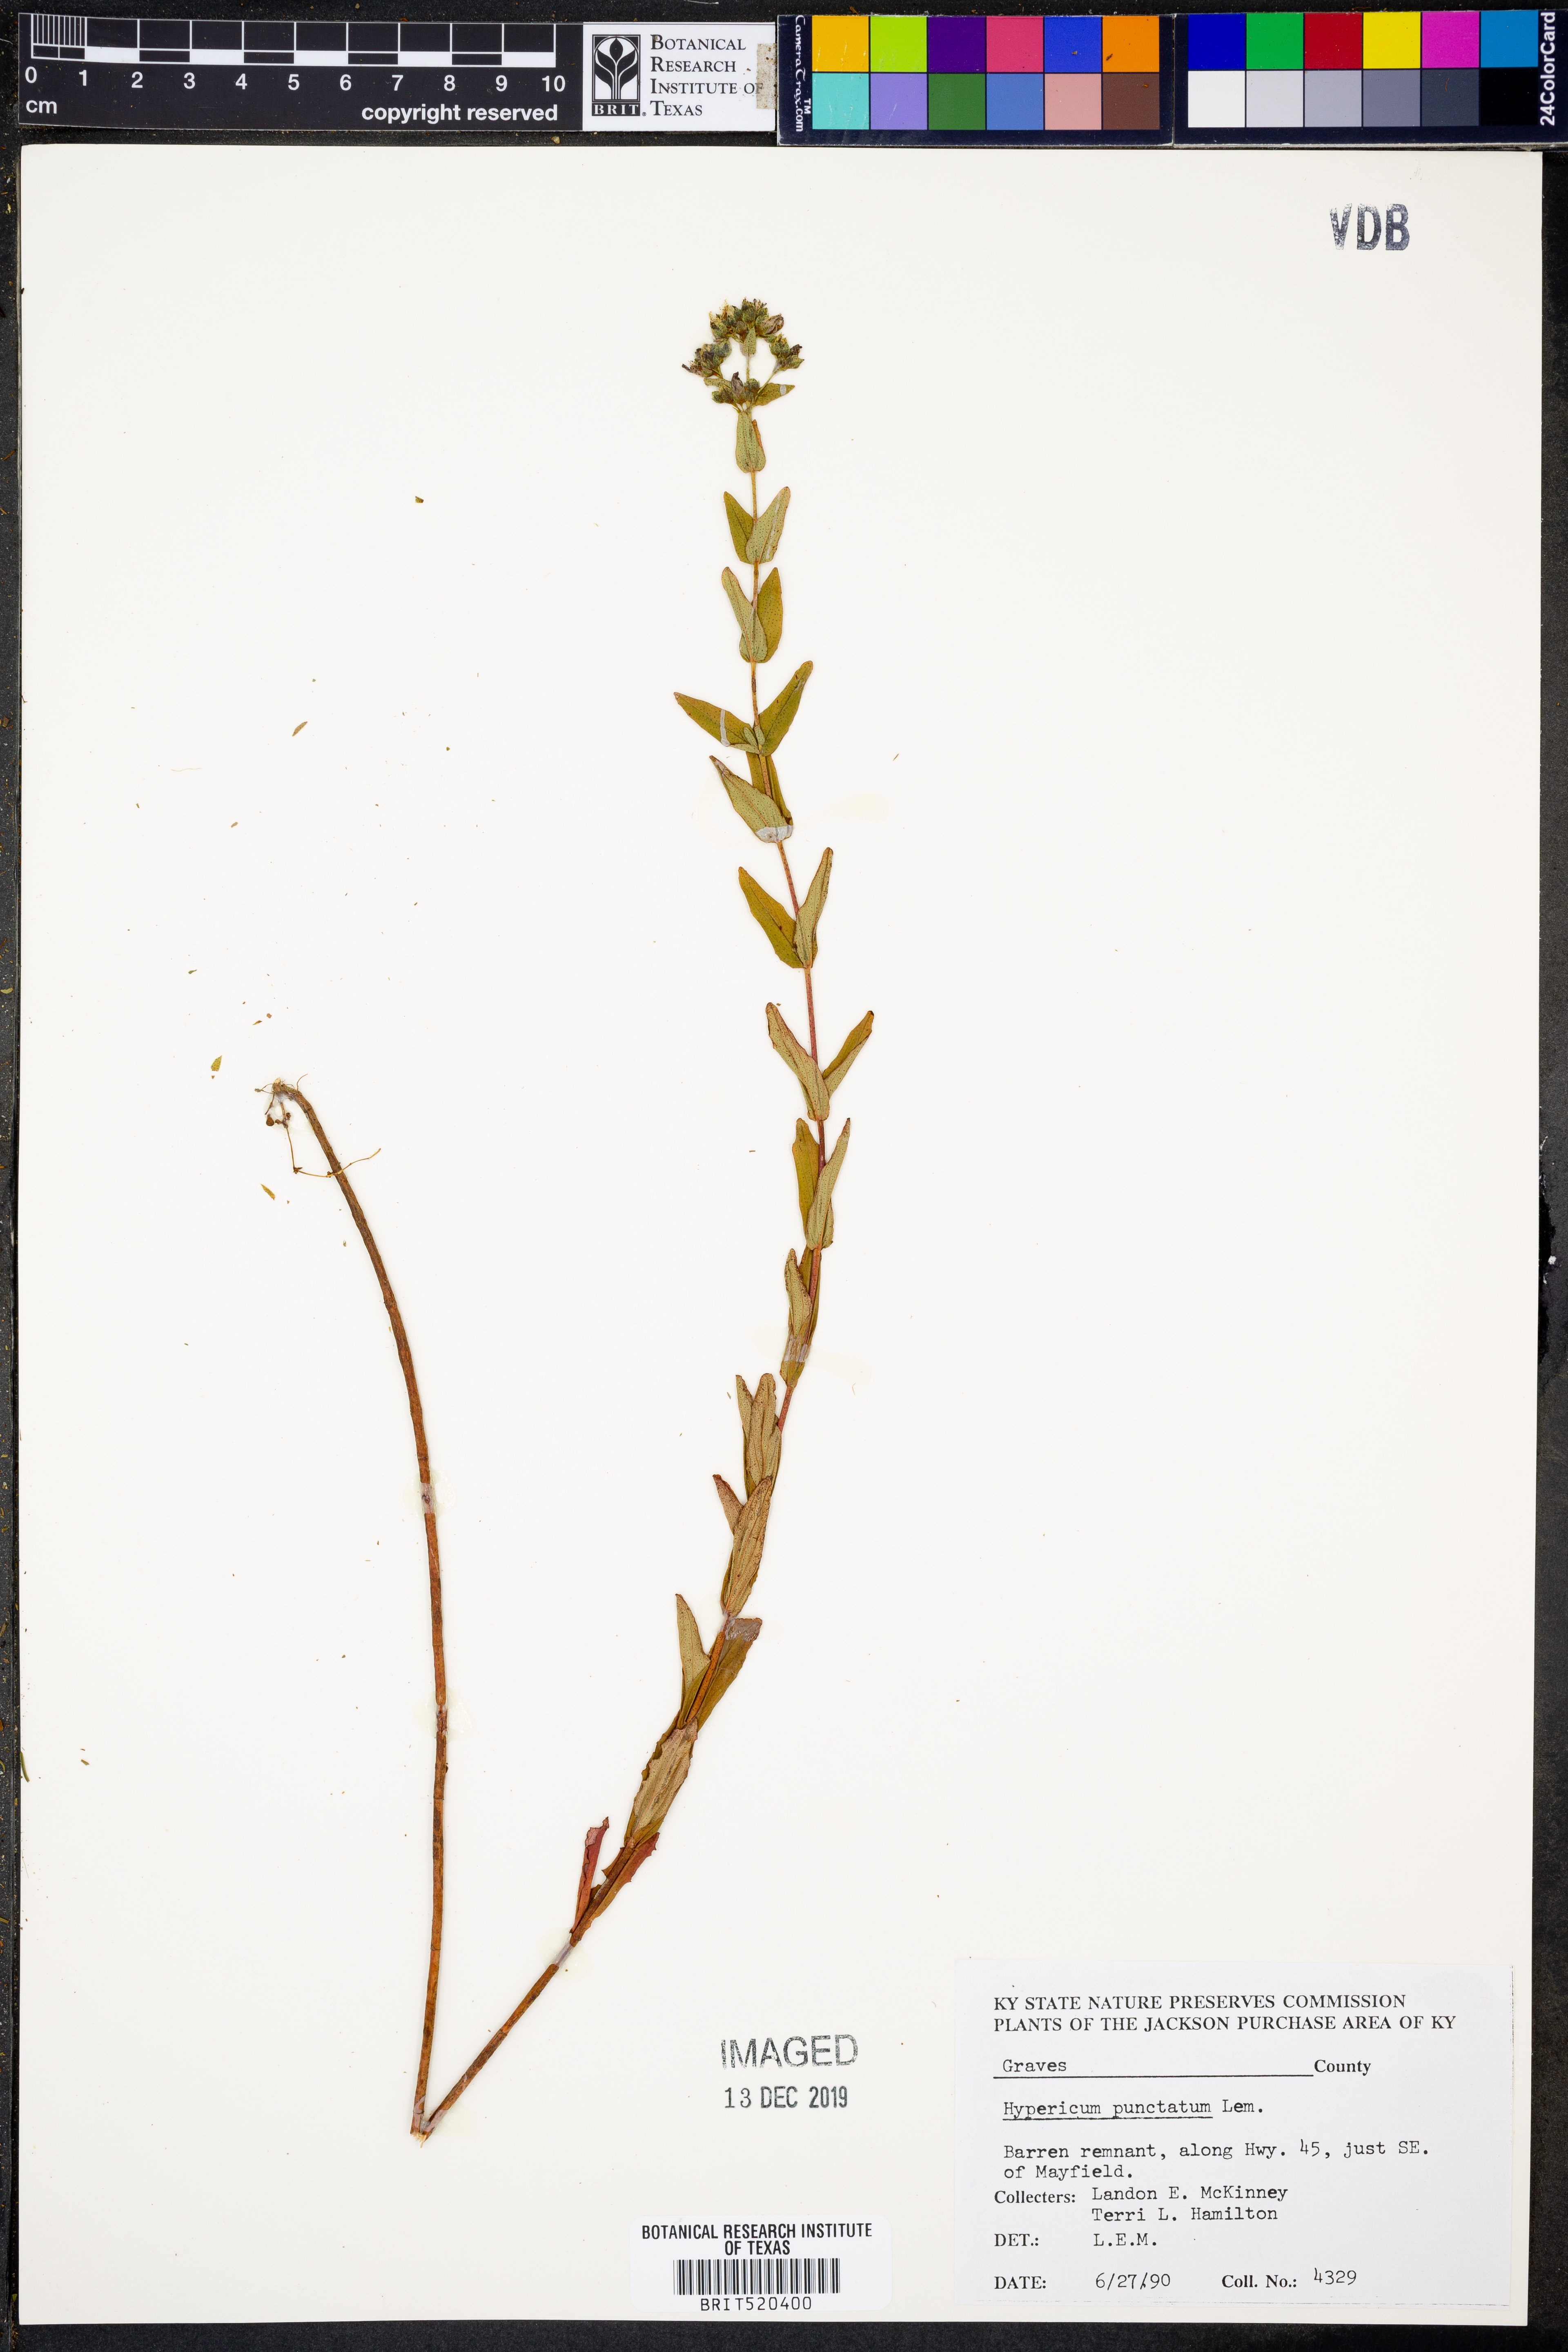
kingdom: Plantae
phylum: Tracheophyta
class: Magnoliopsida
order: Malpighiales
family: Hypericaceae
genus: Hypericum
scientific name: Hypericum punctatum
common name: Spotted st. john's-wort
